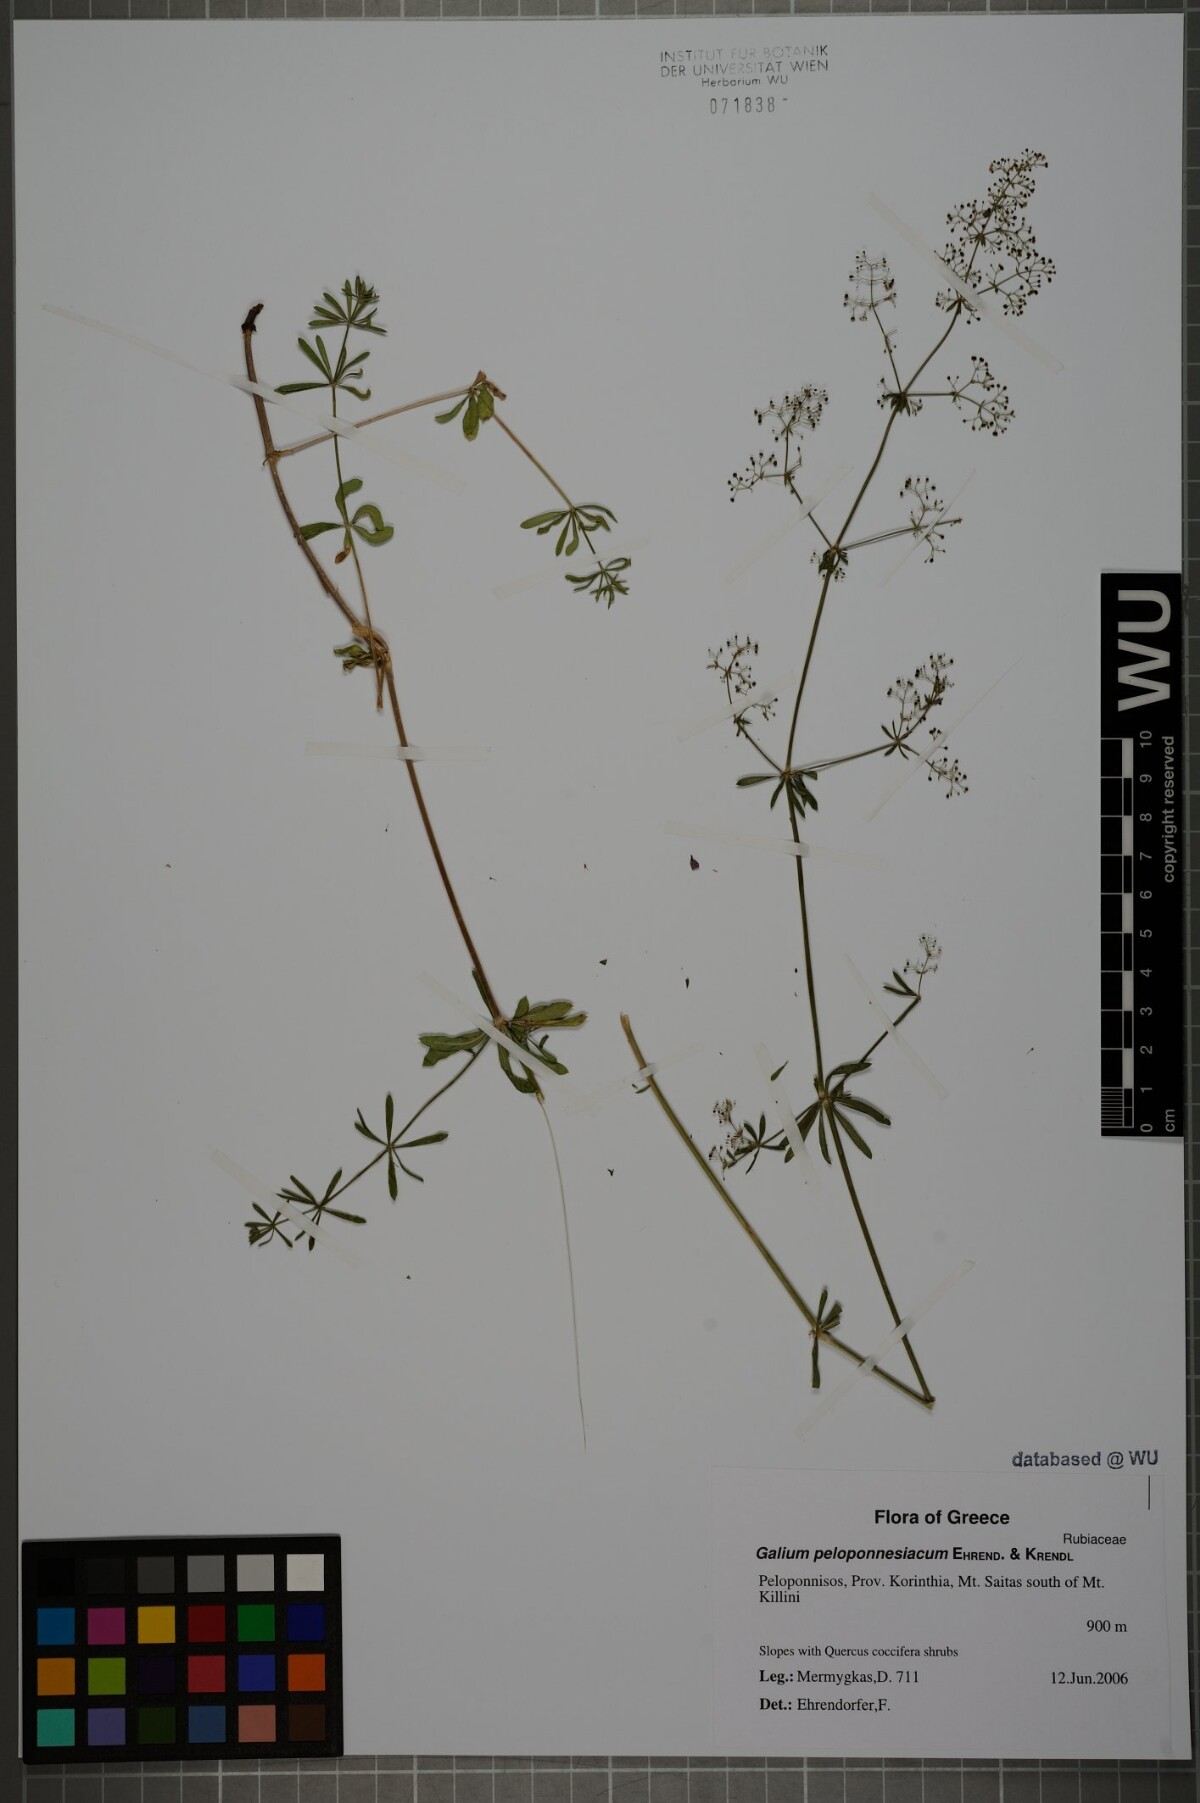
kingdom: Plantae
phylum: Tracheophyta
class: Magnoliopsida
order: Gentianales
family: Rubiaceae
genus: Galium
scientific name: Galium peloponnesiacum
